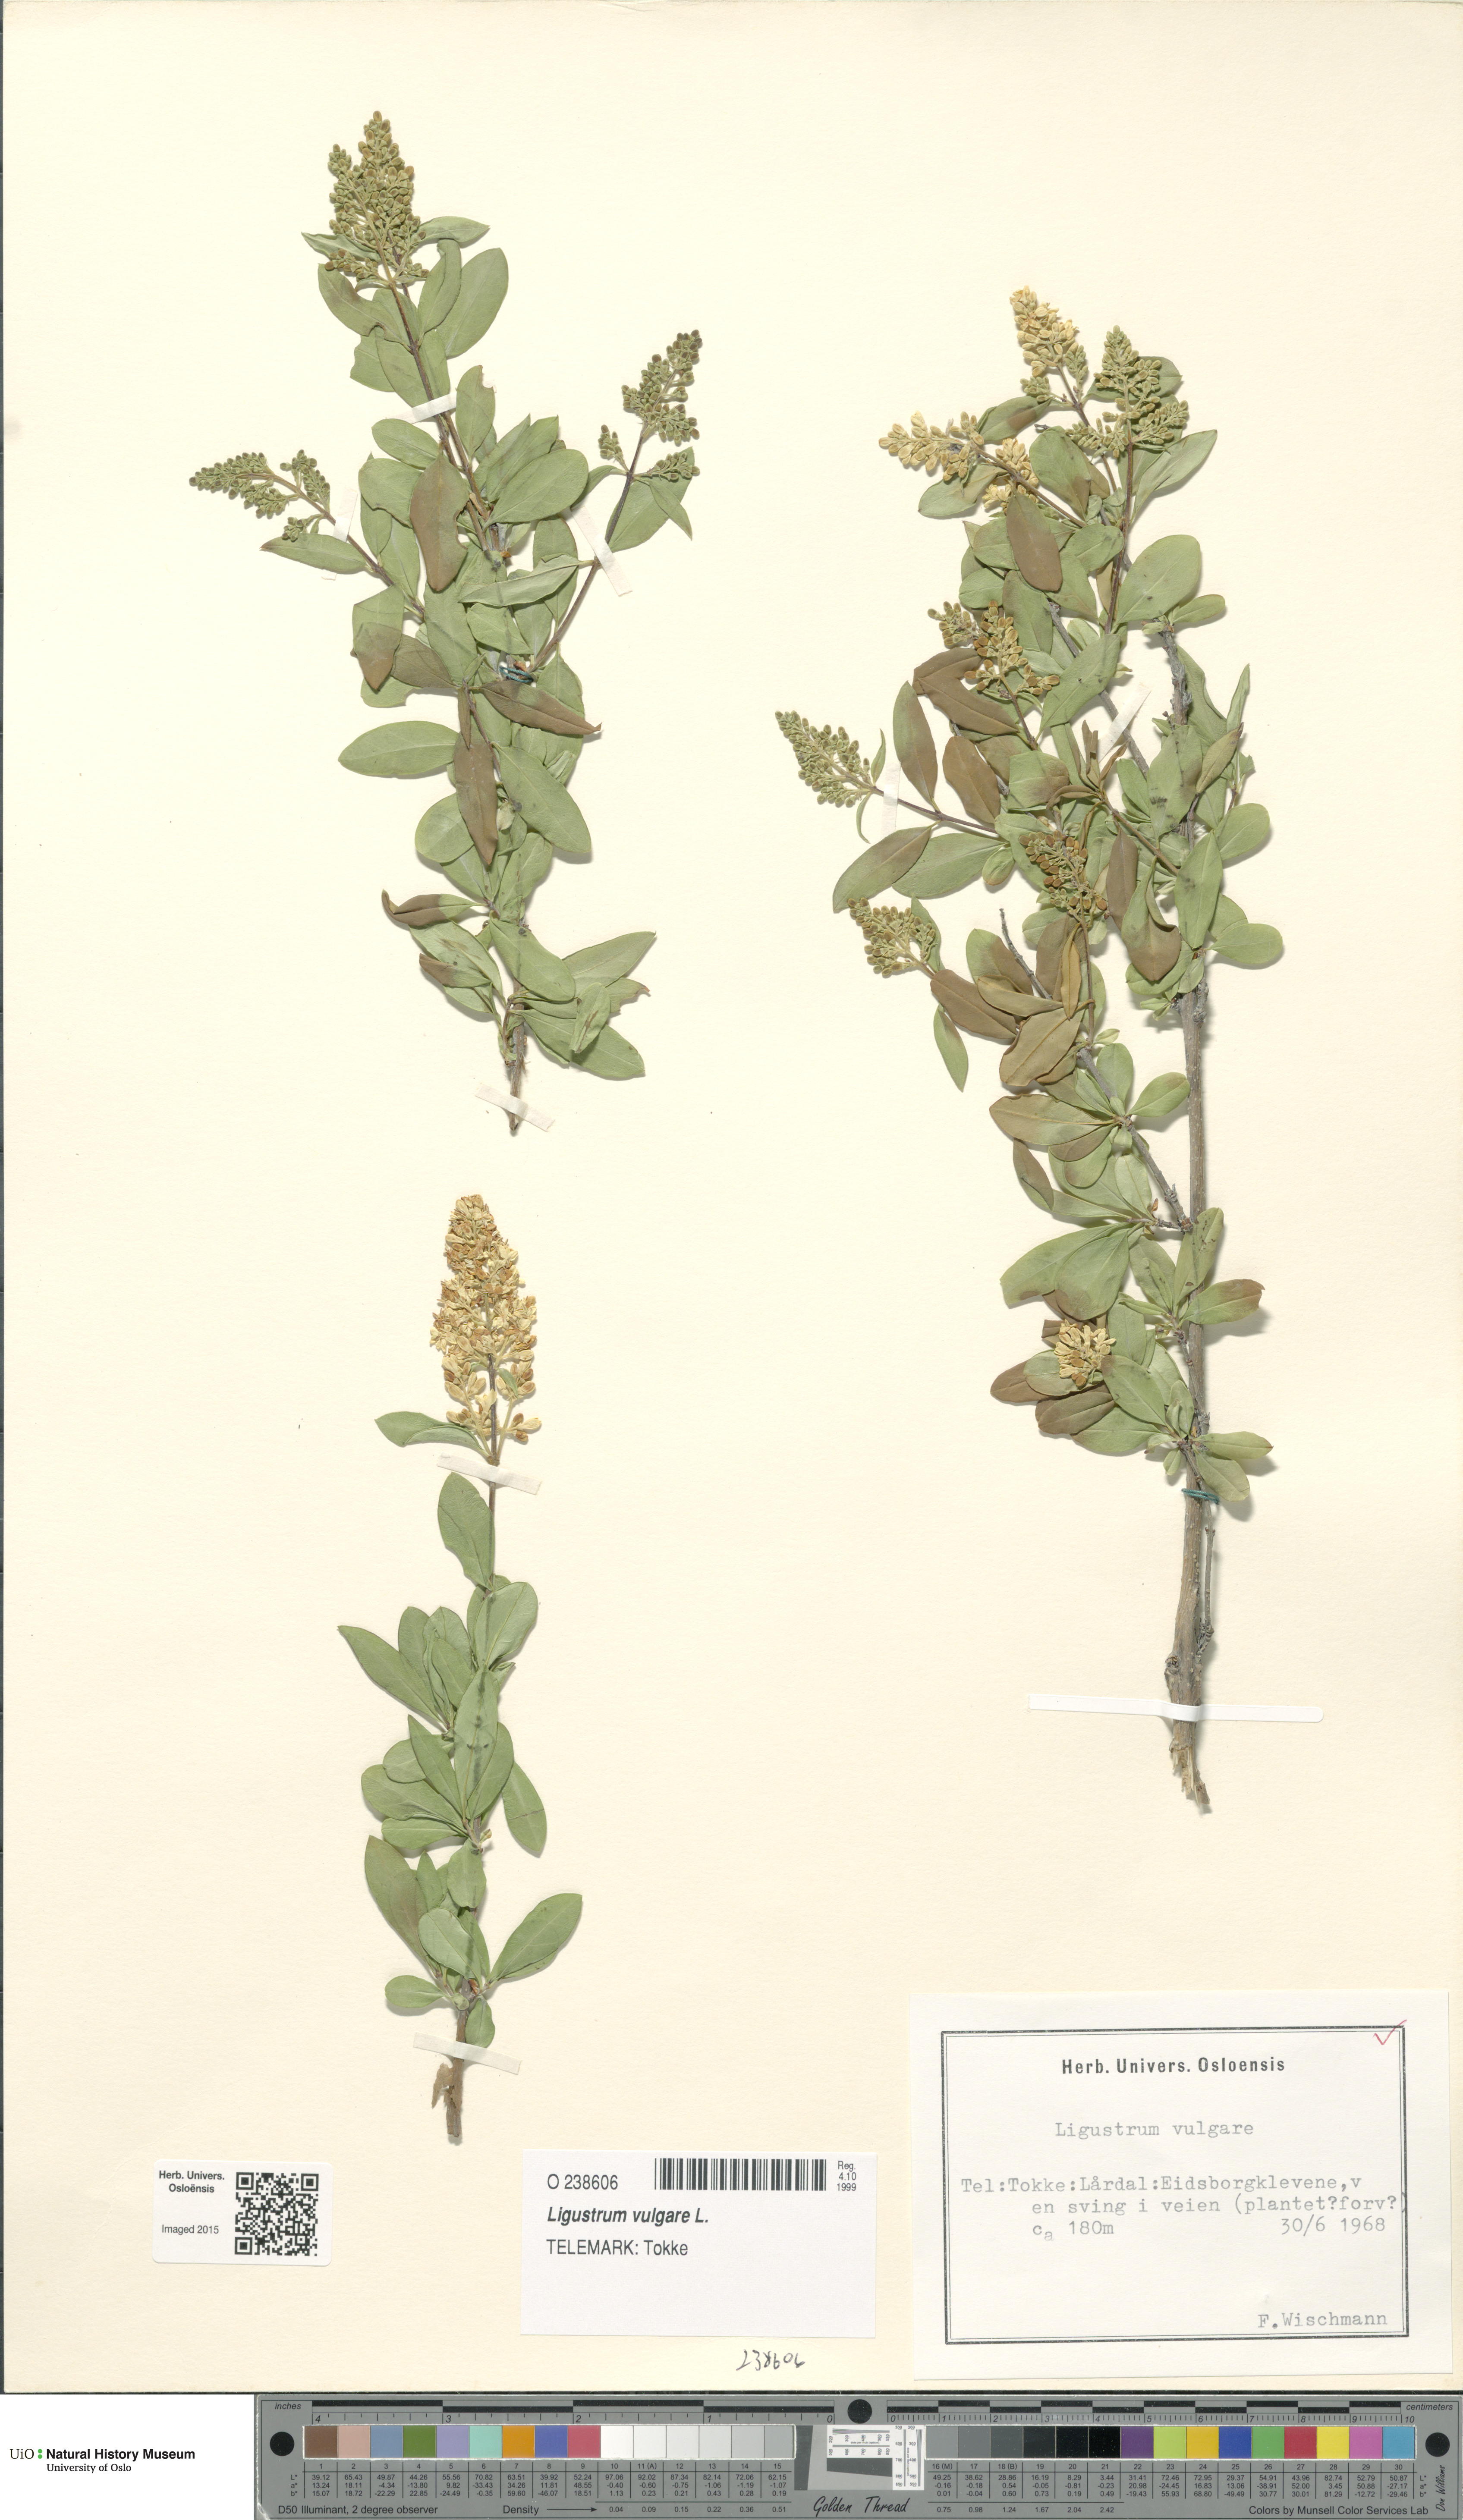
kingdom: Plantae
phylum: Tracheophyta
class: Magnoliopsida
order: Lamiales
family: Oleaceae
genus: Ligustrum
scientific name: Ligustrum vulgare
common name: Wild privet
